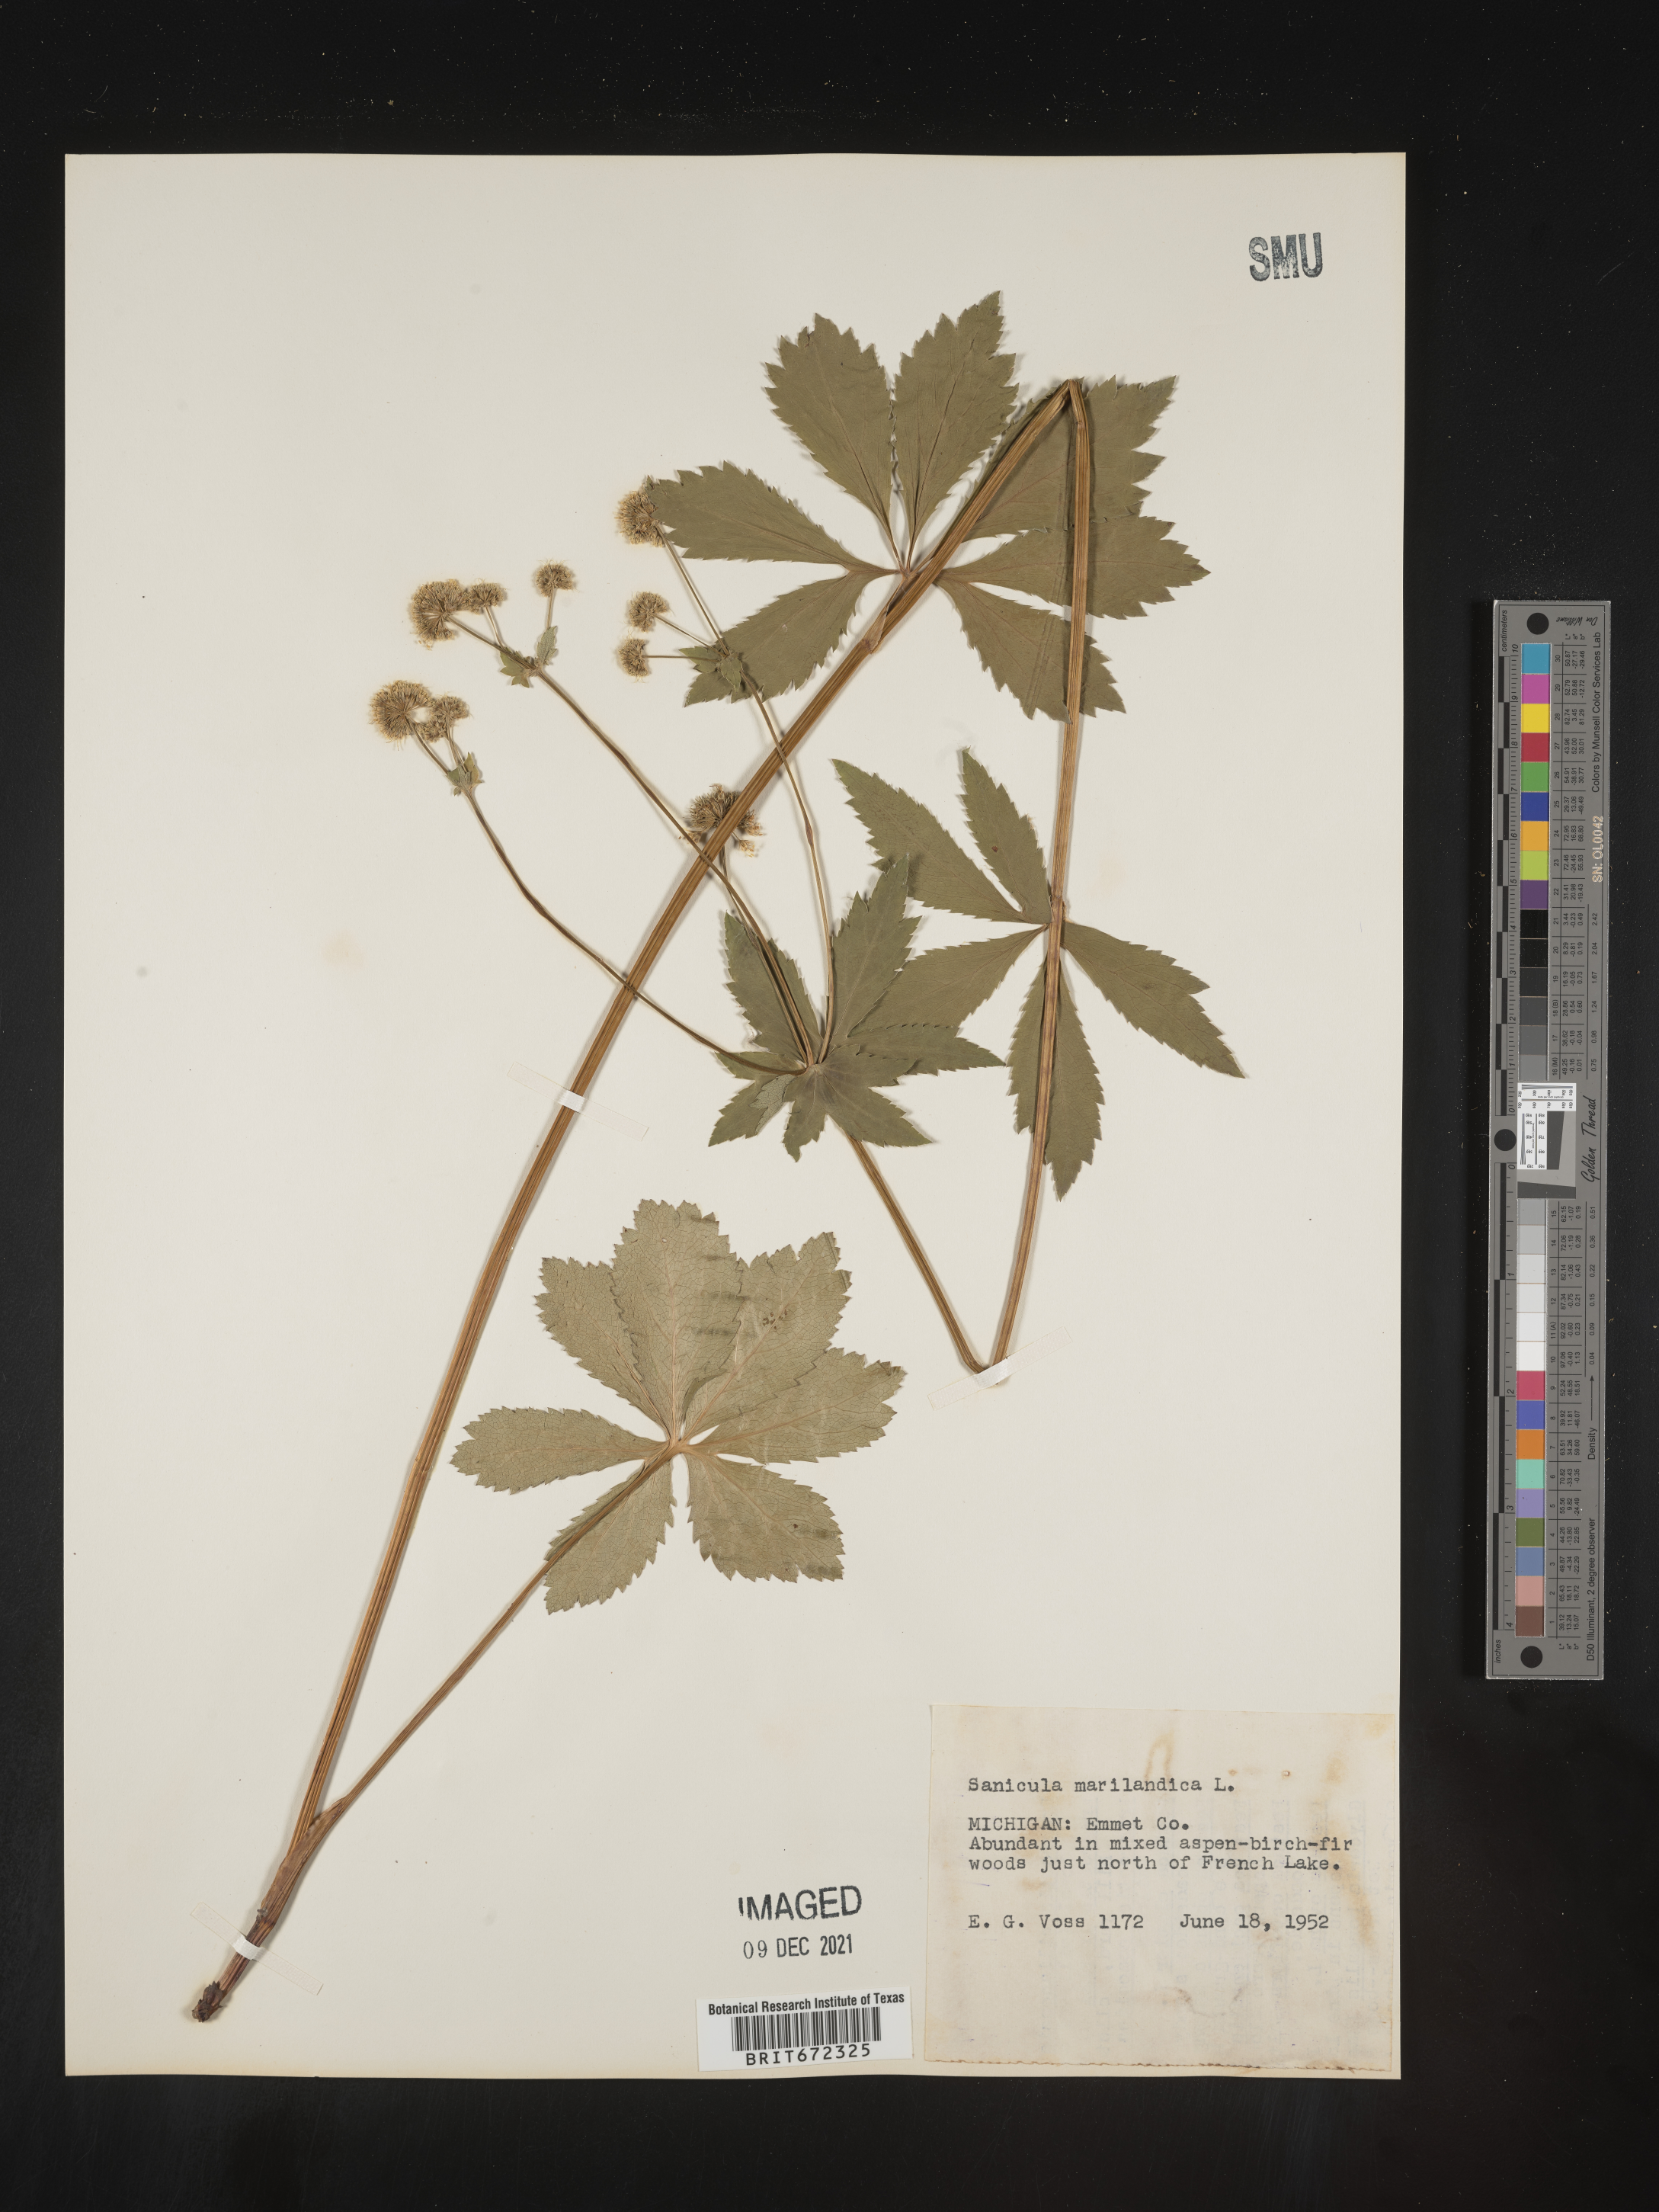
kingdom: Plantae
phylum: Tracheophyta
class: Magnoliopsida
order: Apiales
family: Apiaceae
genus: Sanicula
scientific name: Sanicula marilandica
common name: Black snakeroot
